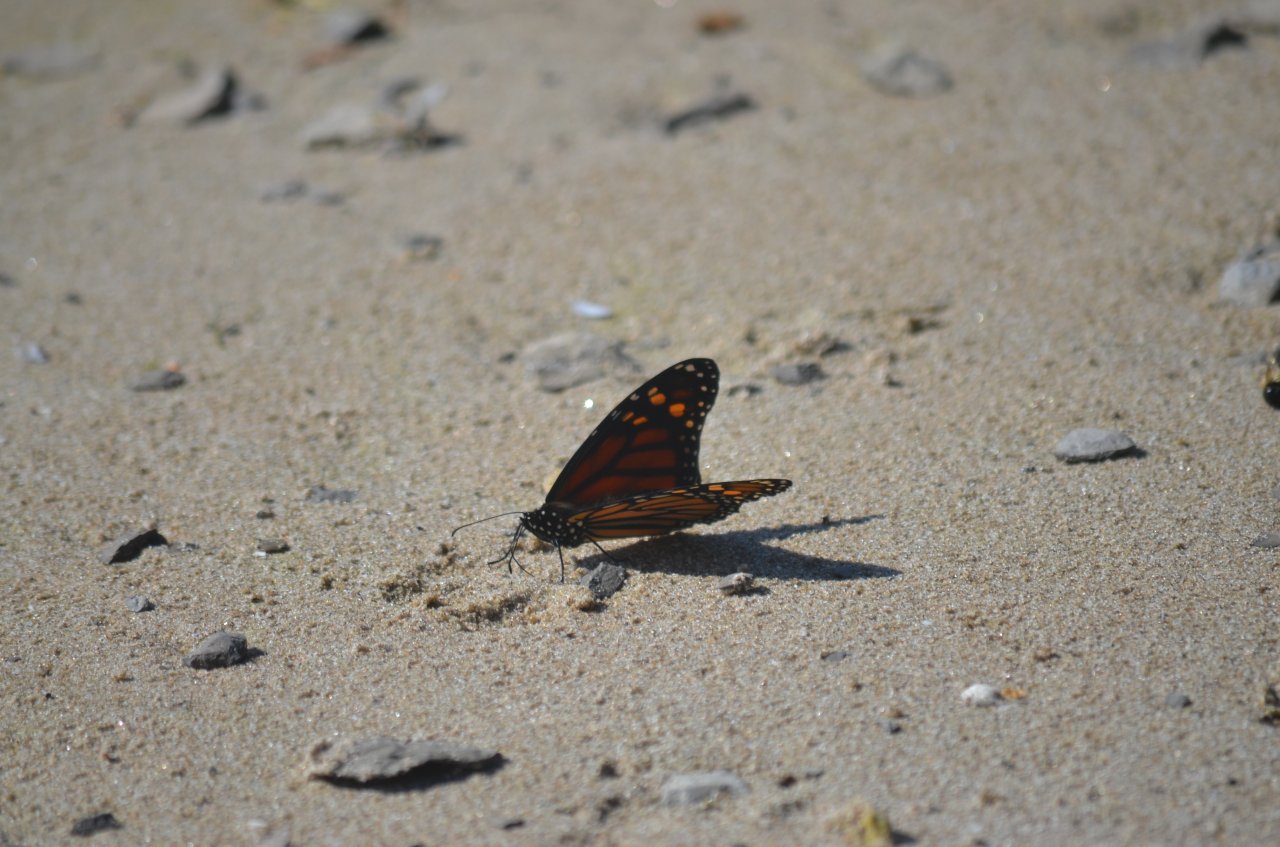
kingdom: Animalia
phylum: Arthropoda
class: Insecta
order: Lepidoptera
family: Nymphalidae
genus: Danaus
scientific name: Danaus plexippus
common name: Monarch
